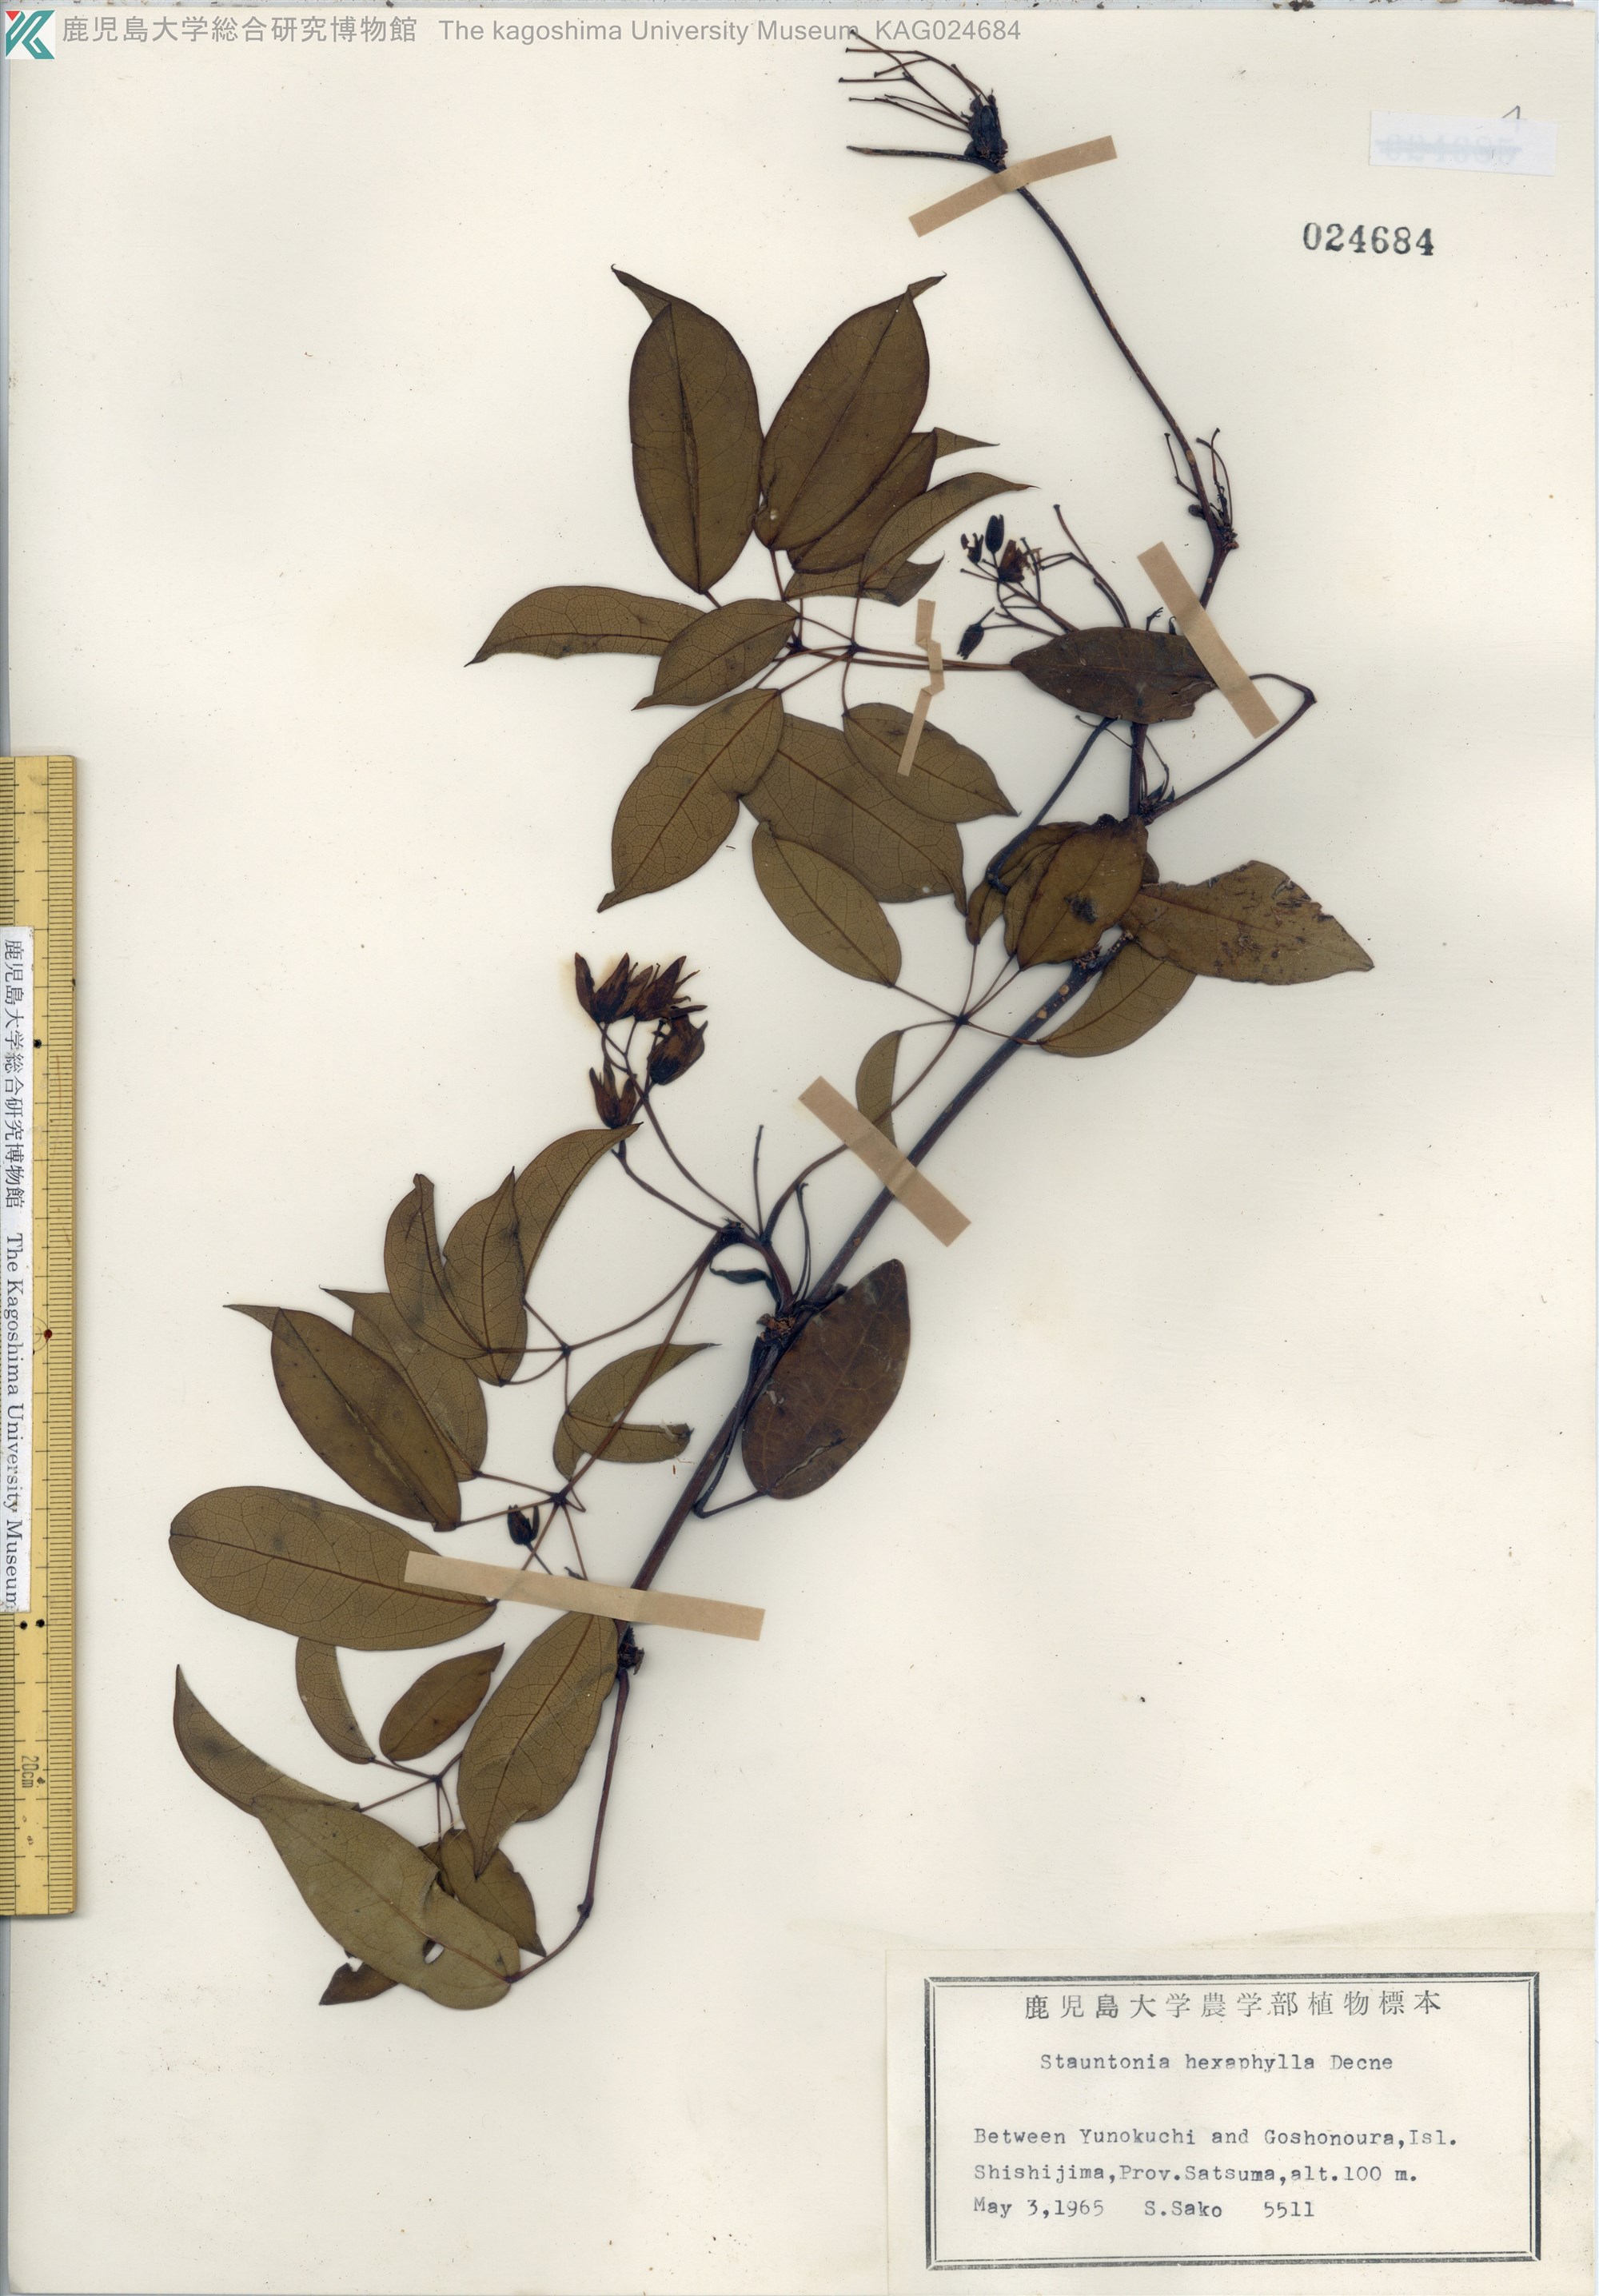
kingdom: Plantae
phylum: Tracheophyta
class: Magnoliopsida
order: Ranunculales
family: Lardizabalaceae
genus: Stauntonia
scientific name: Stauntonia hexaphylla
